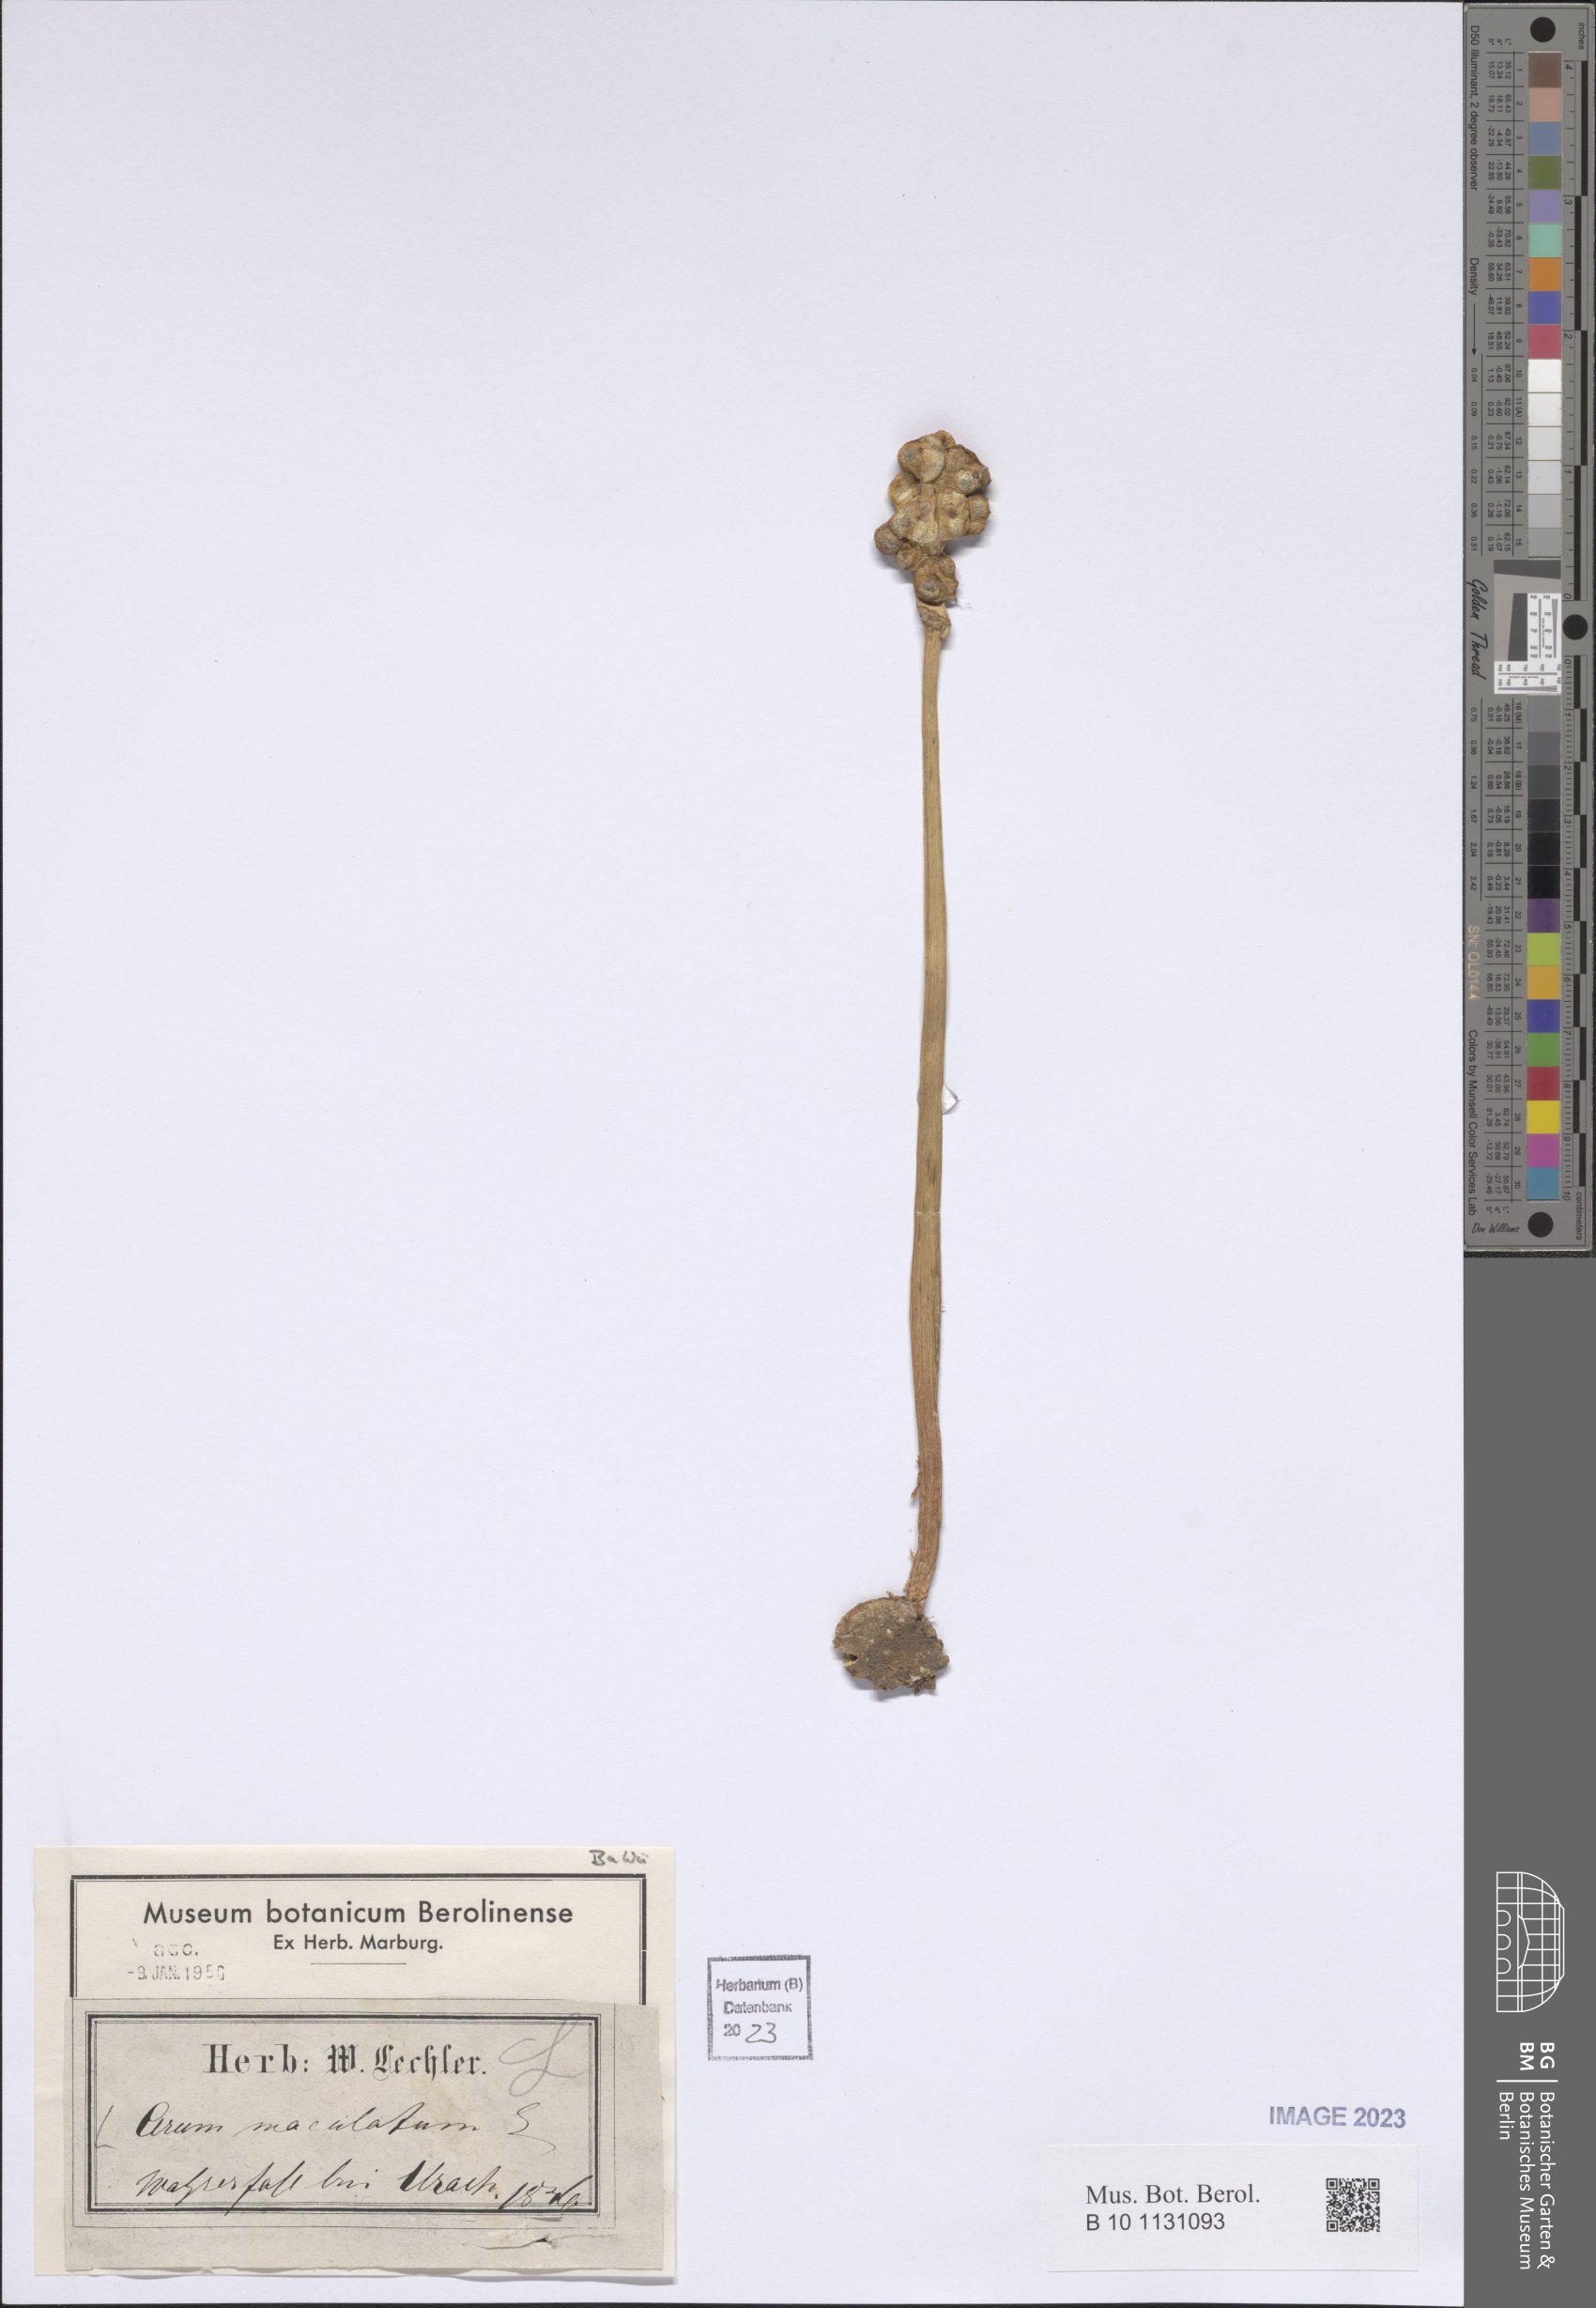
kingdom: Plantae
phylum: Tracheophyta
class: Liliopsida
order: Alismatales
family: Araceae
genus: Arum
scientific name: Arum maculatum
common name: Lords-and-ladies
